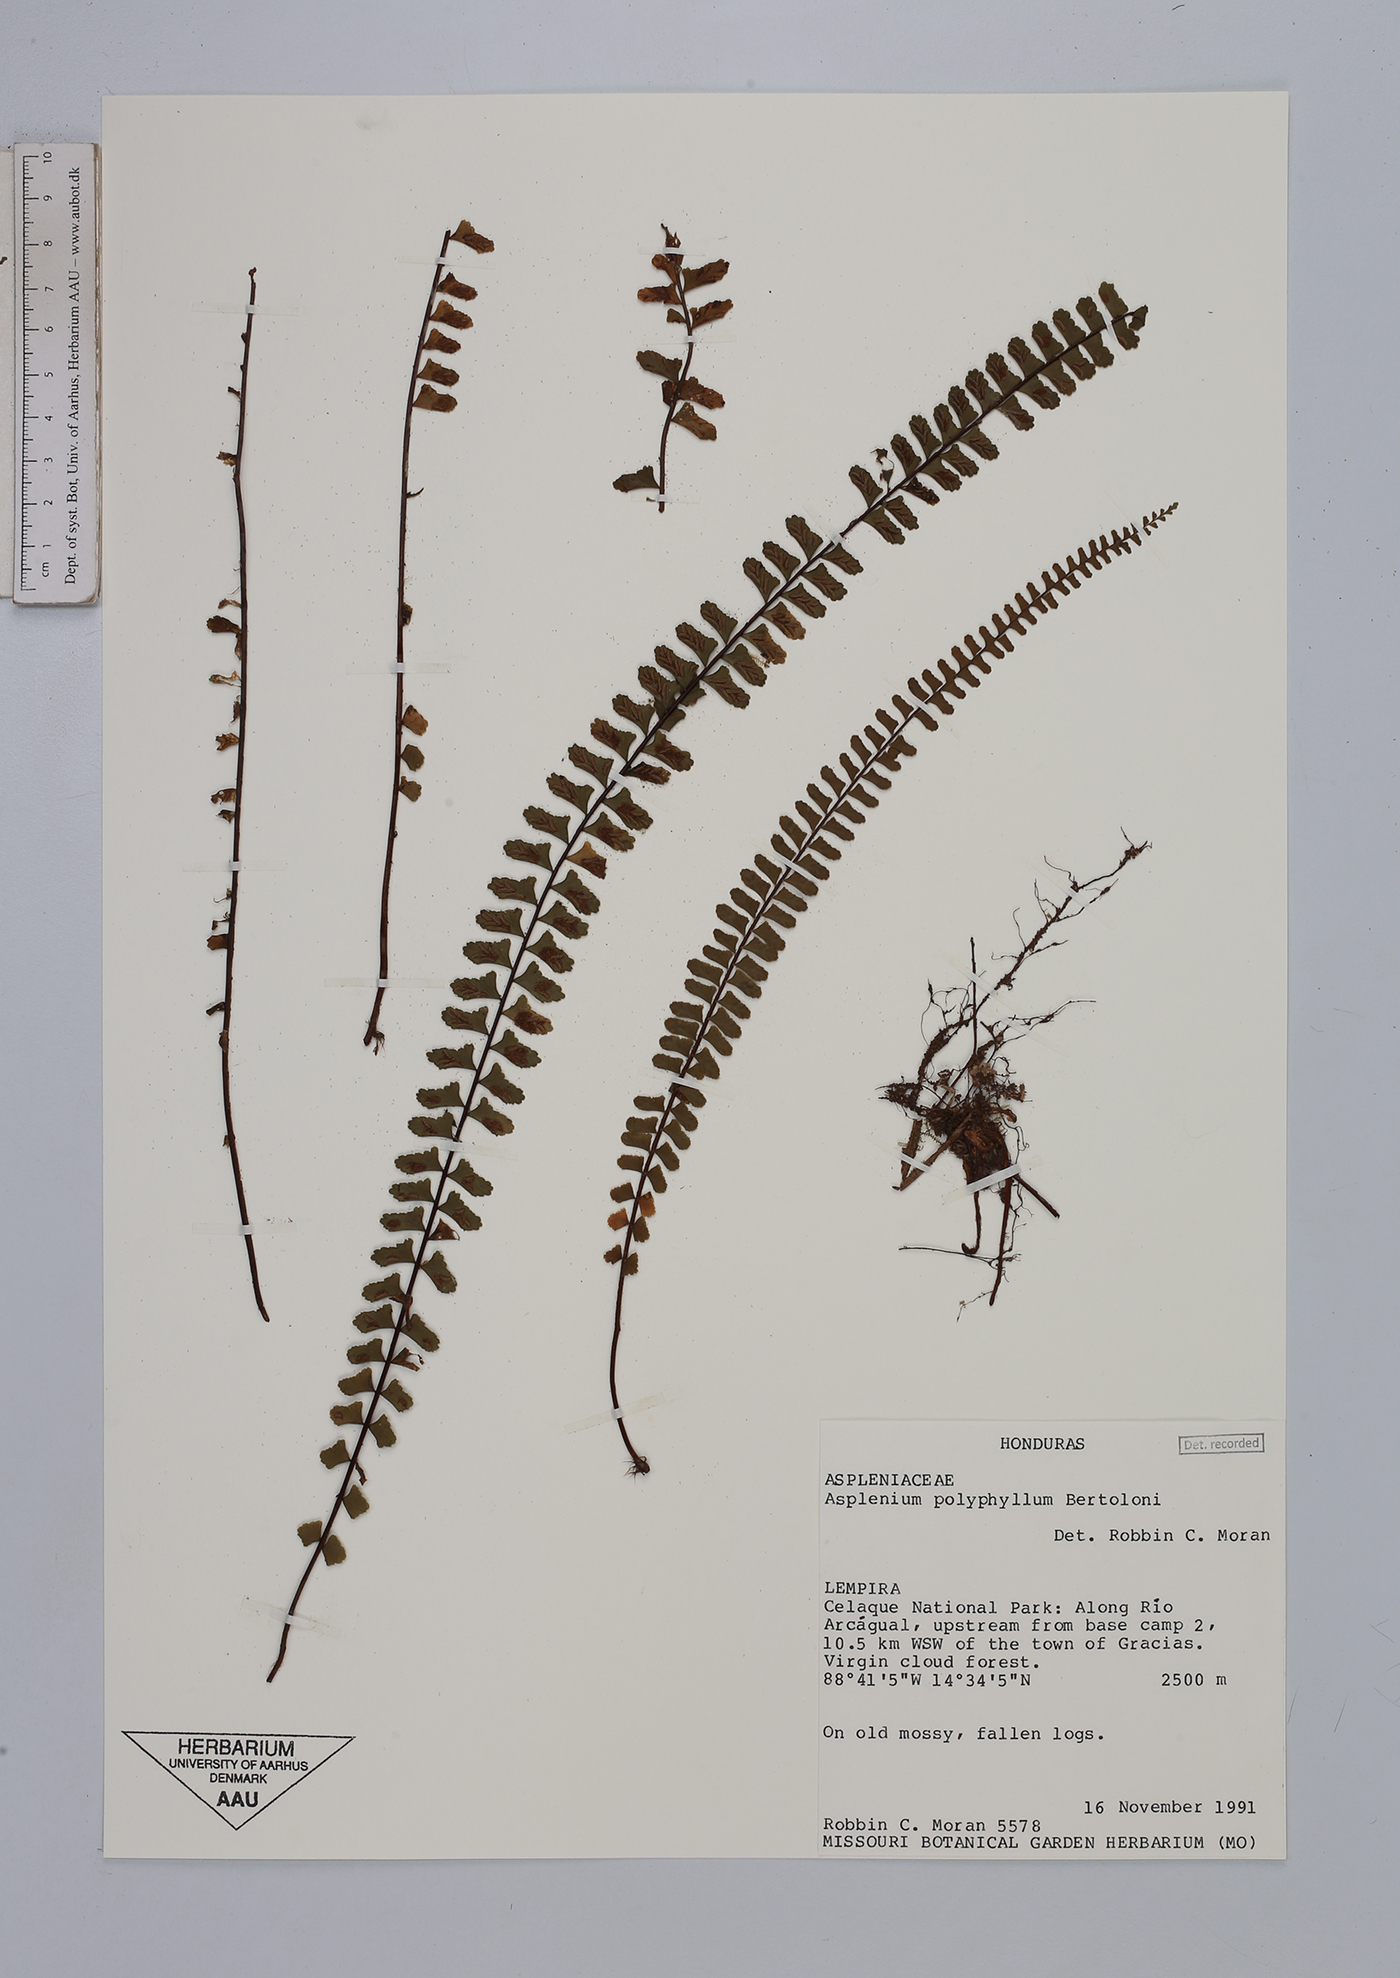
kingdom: Plantae
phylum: Tracheophyta
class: Polypodiopsida
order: Polypodiales
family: Aspleniaceae
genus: Asplenium
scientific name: Asplenium polyphyllum
